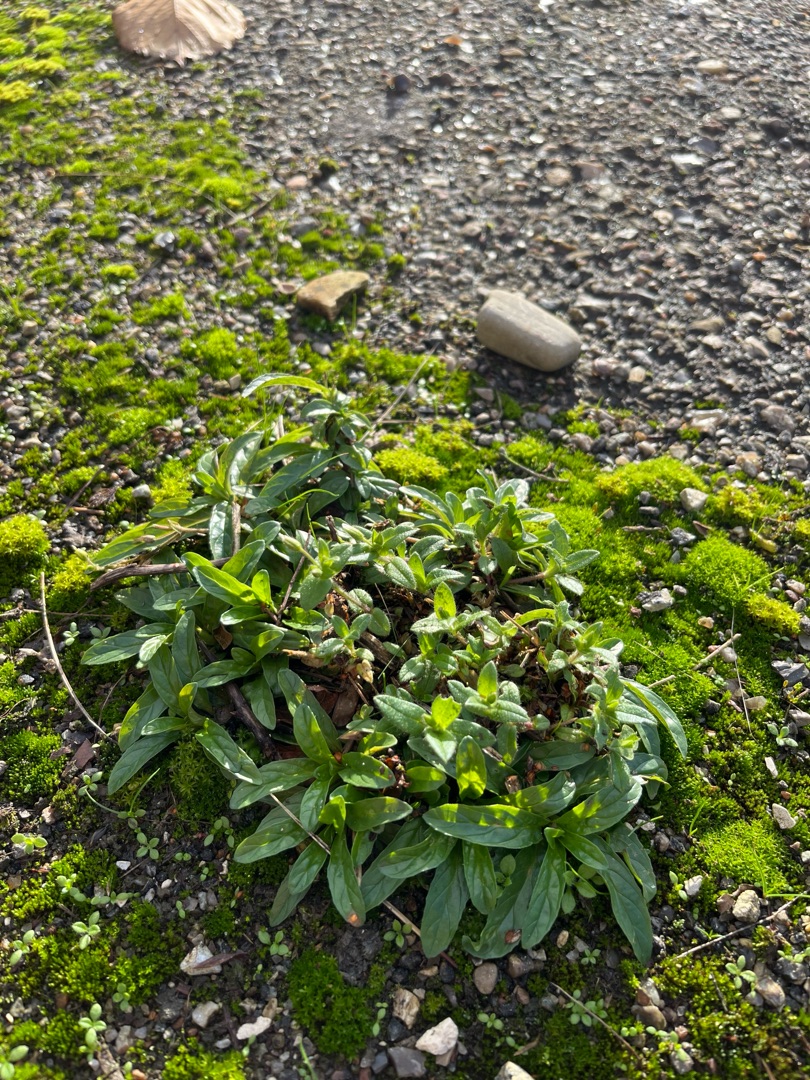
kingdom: Plantae
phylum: Tracheophyta
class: Magnoliopsida
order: Myrtales
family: Onagraceae
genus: Epilobium
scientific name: Epilobium
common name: Dueurtslægten
